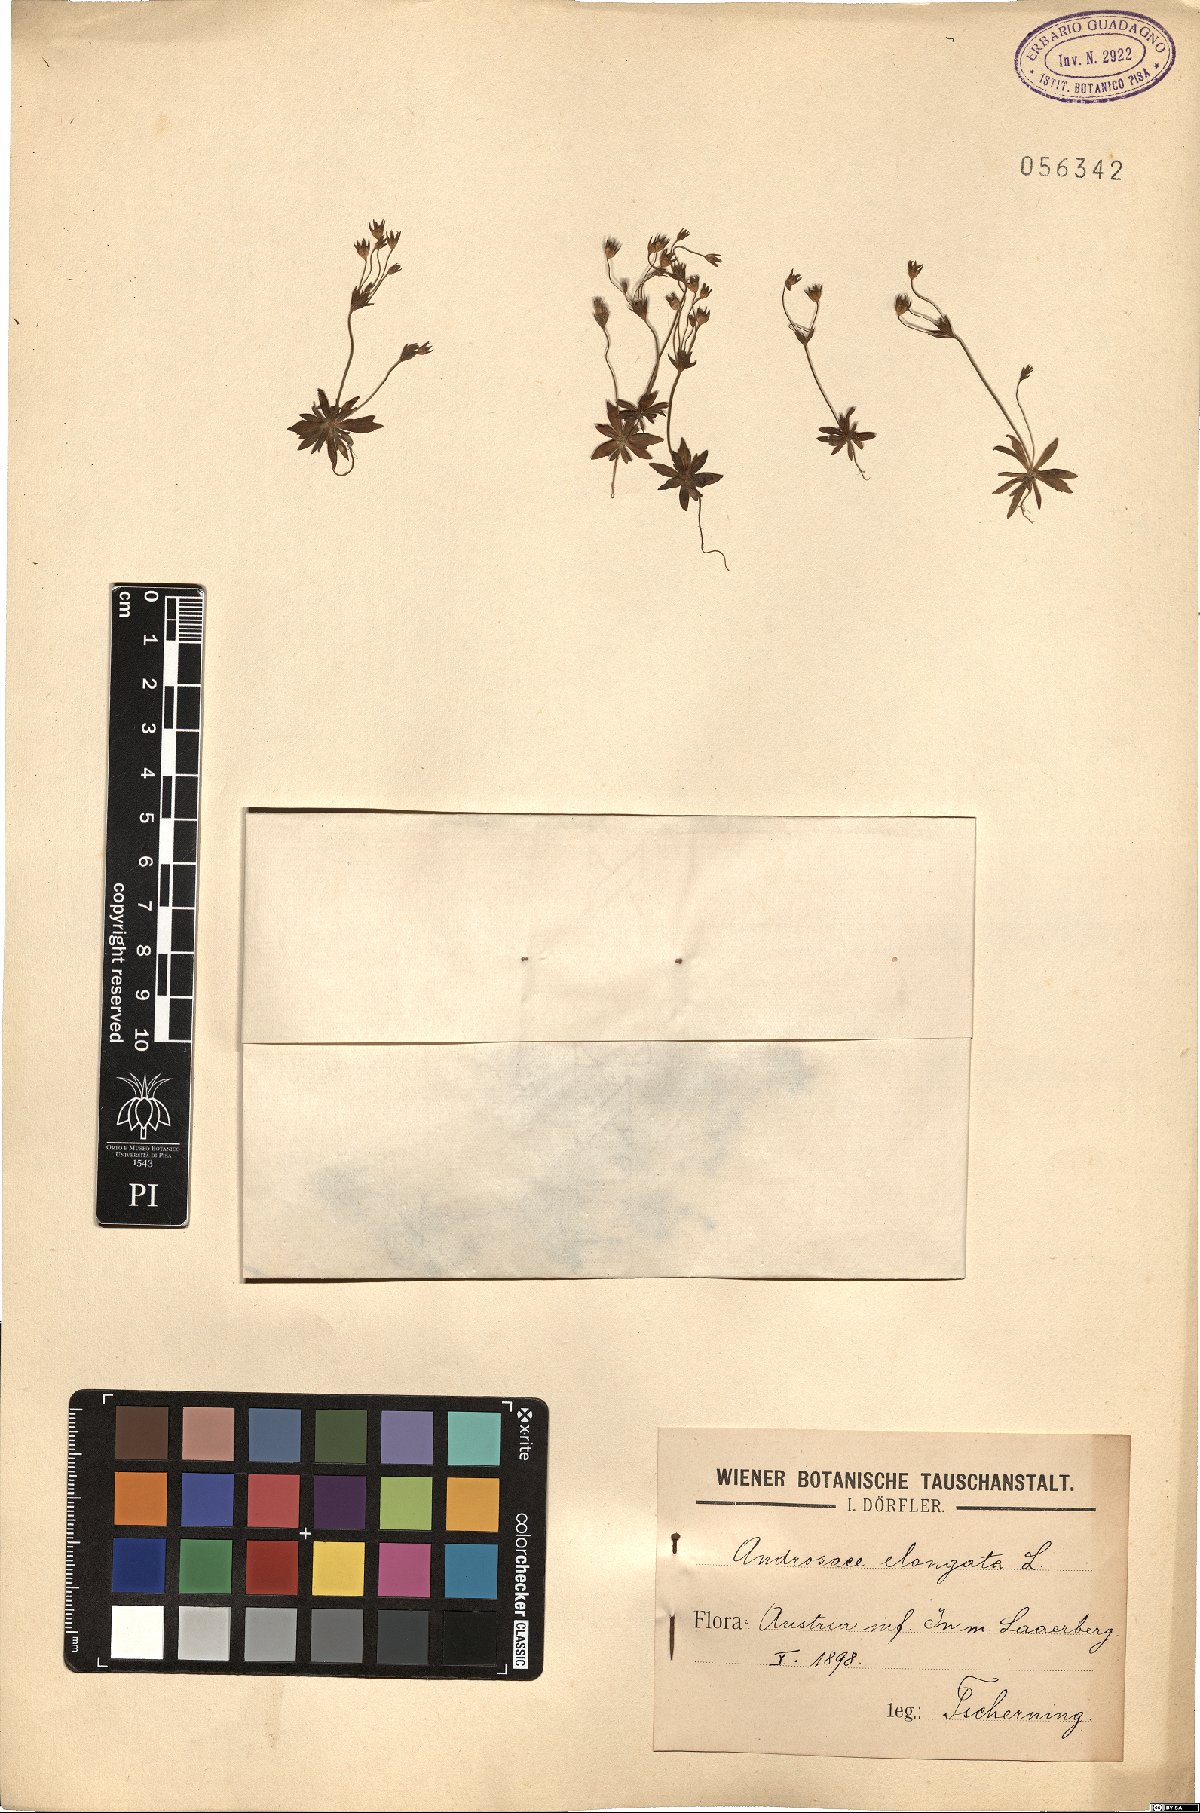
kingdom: Plantae
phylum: Tracheophyta
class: Magnoliopsida
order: Ericales
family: Primulaceae
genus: Androsace
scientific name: Androsace elongata
